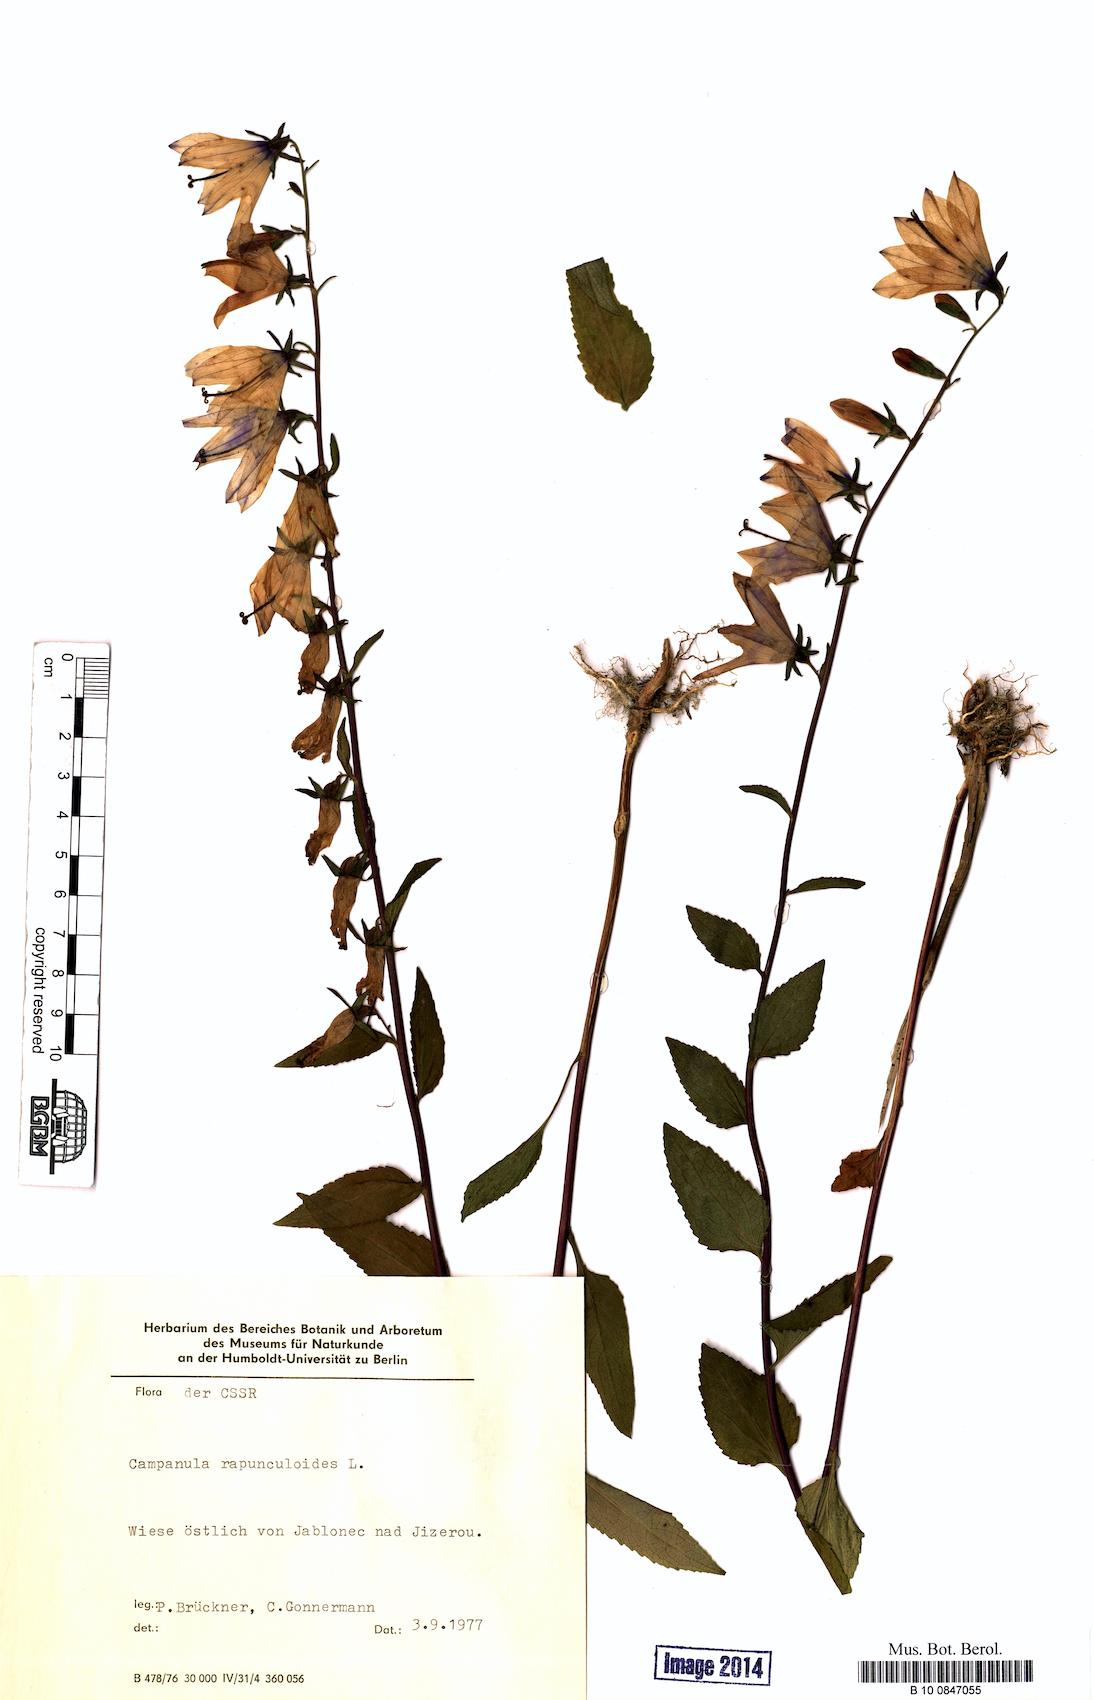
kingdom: Plantae
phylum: Tracheophyta
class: Magnoliopsida
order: Asterales
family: Campanulaceae
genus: Campanula
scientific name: Campanula rapunculoides
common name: Creeping bellflower
